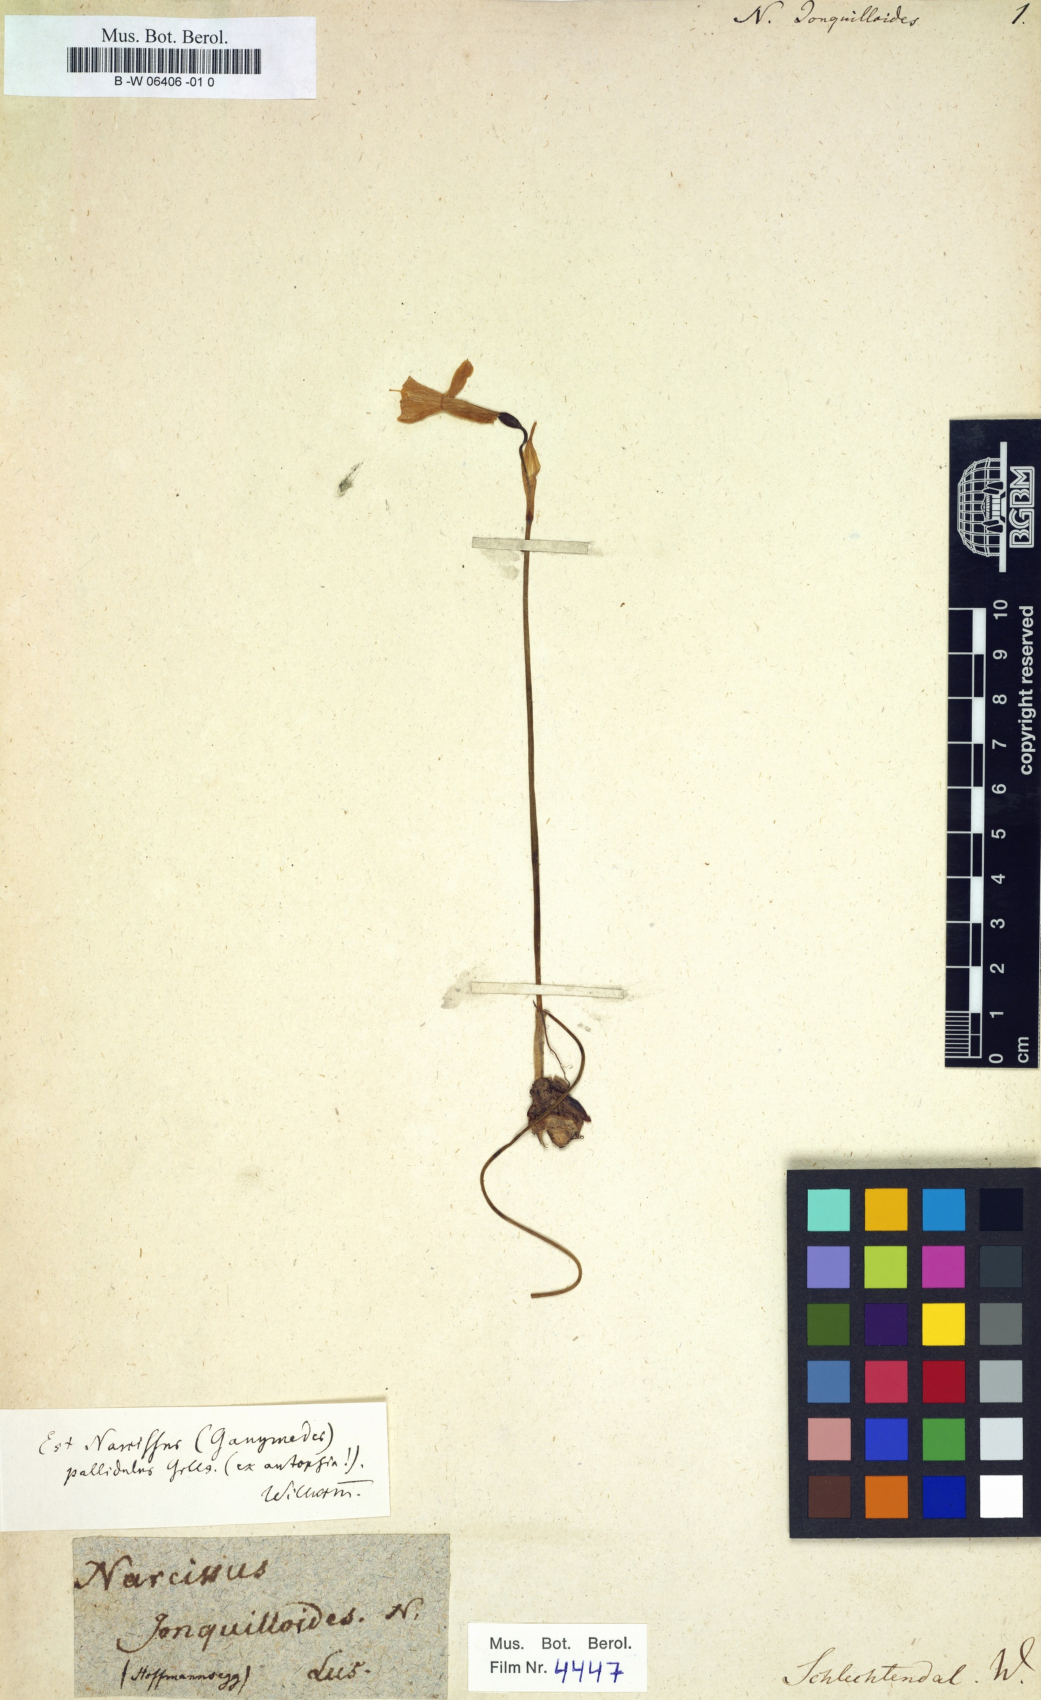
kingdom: Plantae
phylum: Tracheophyta
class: Liliopsida
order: Asparagales
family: Amaryllidaceae
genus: Narcissus
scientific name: Narcissus
